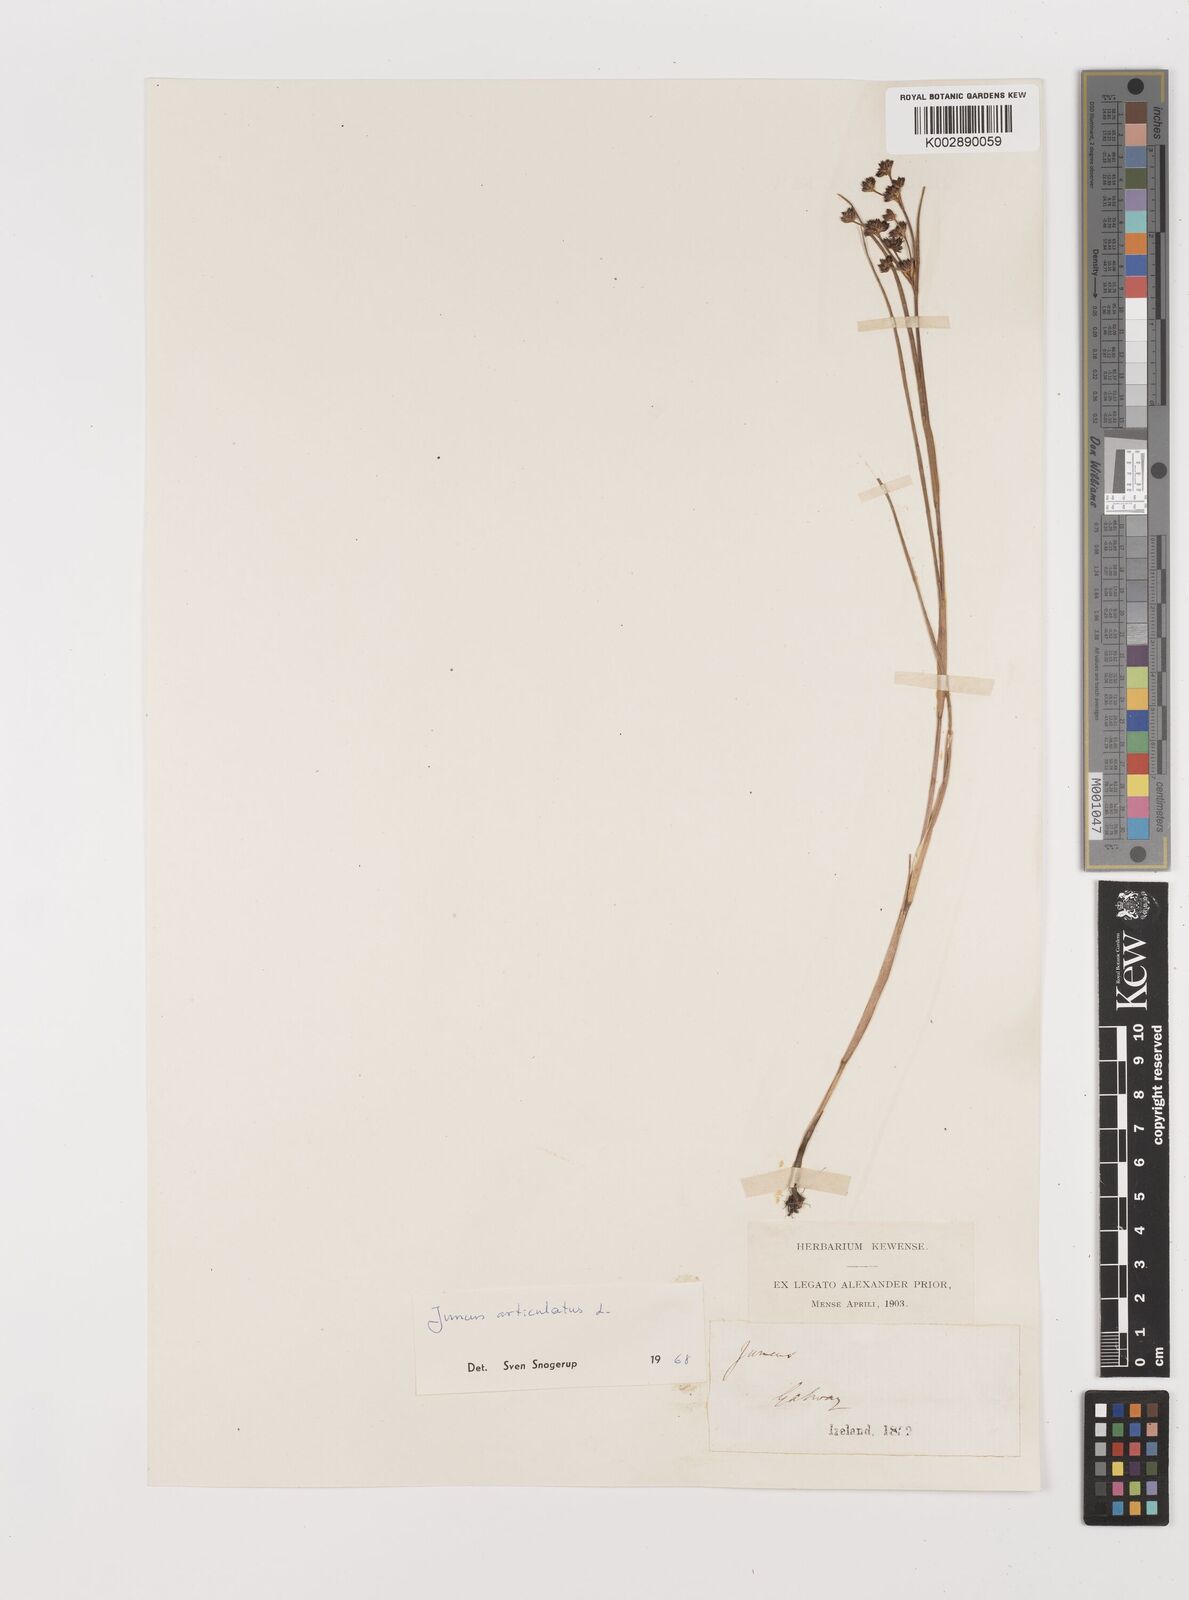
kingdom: Plantae
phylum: Tracheophyta
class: Liliopsida
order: Poales
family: Juncaceae
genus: Juncus
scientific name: Juncus articulatus
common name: Jointed rush
